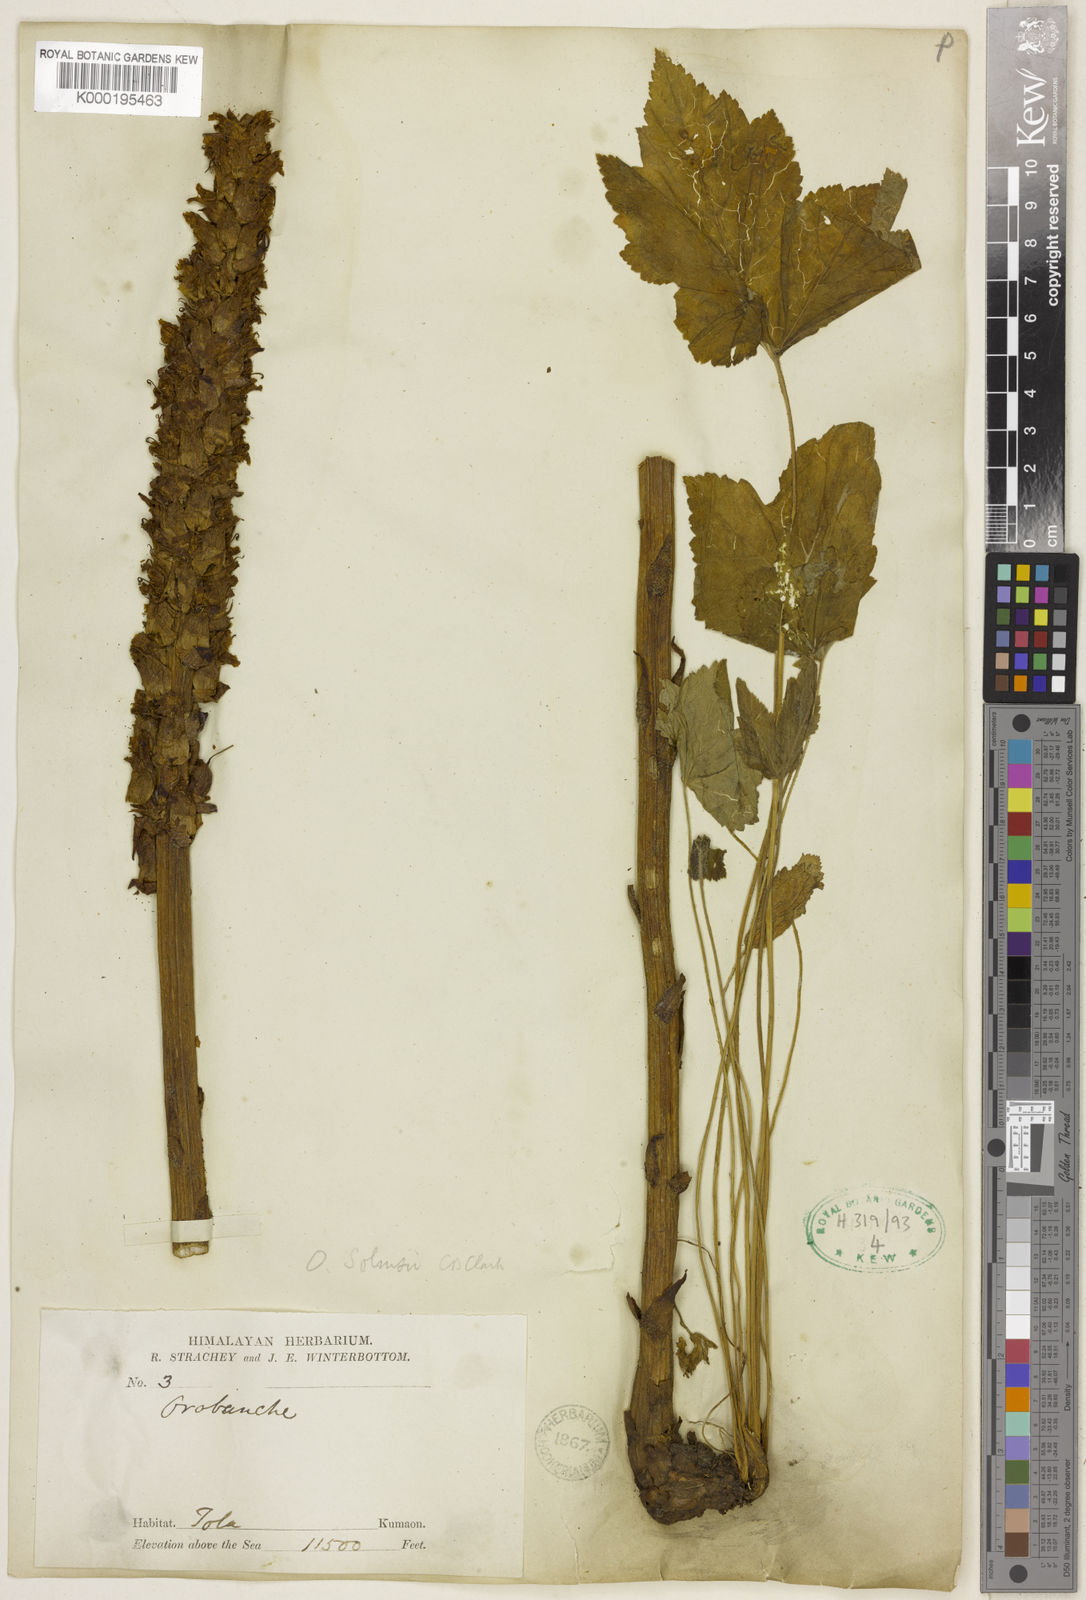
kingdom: Plantae
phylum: Tracheophyta
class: Magnoliopsida
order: Lamiales
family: Orobanchaceae
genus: Orobanche
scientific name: Orobanche cernua
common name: Australian broomrape
